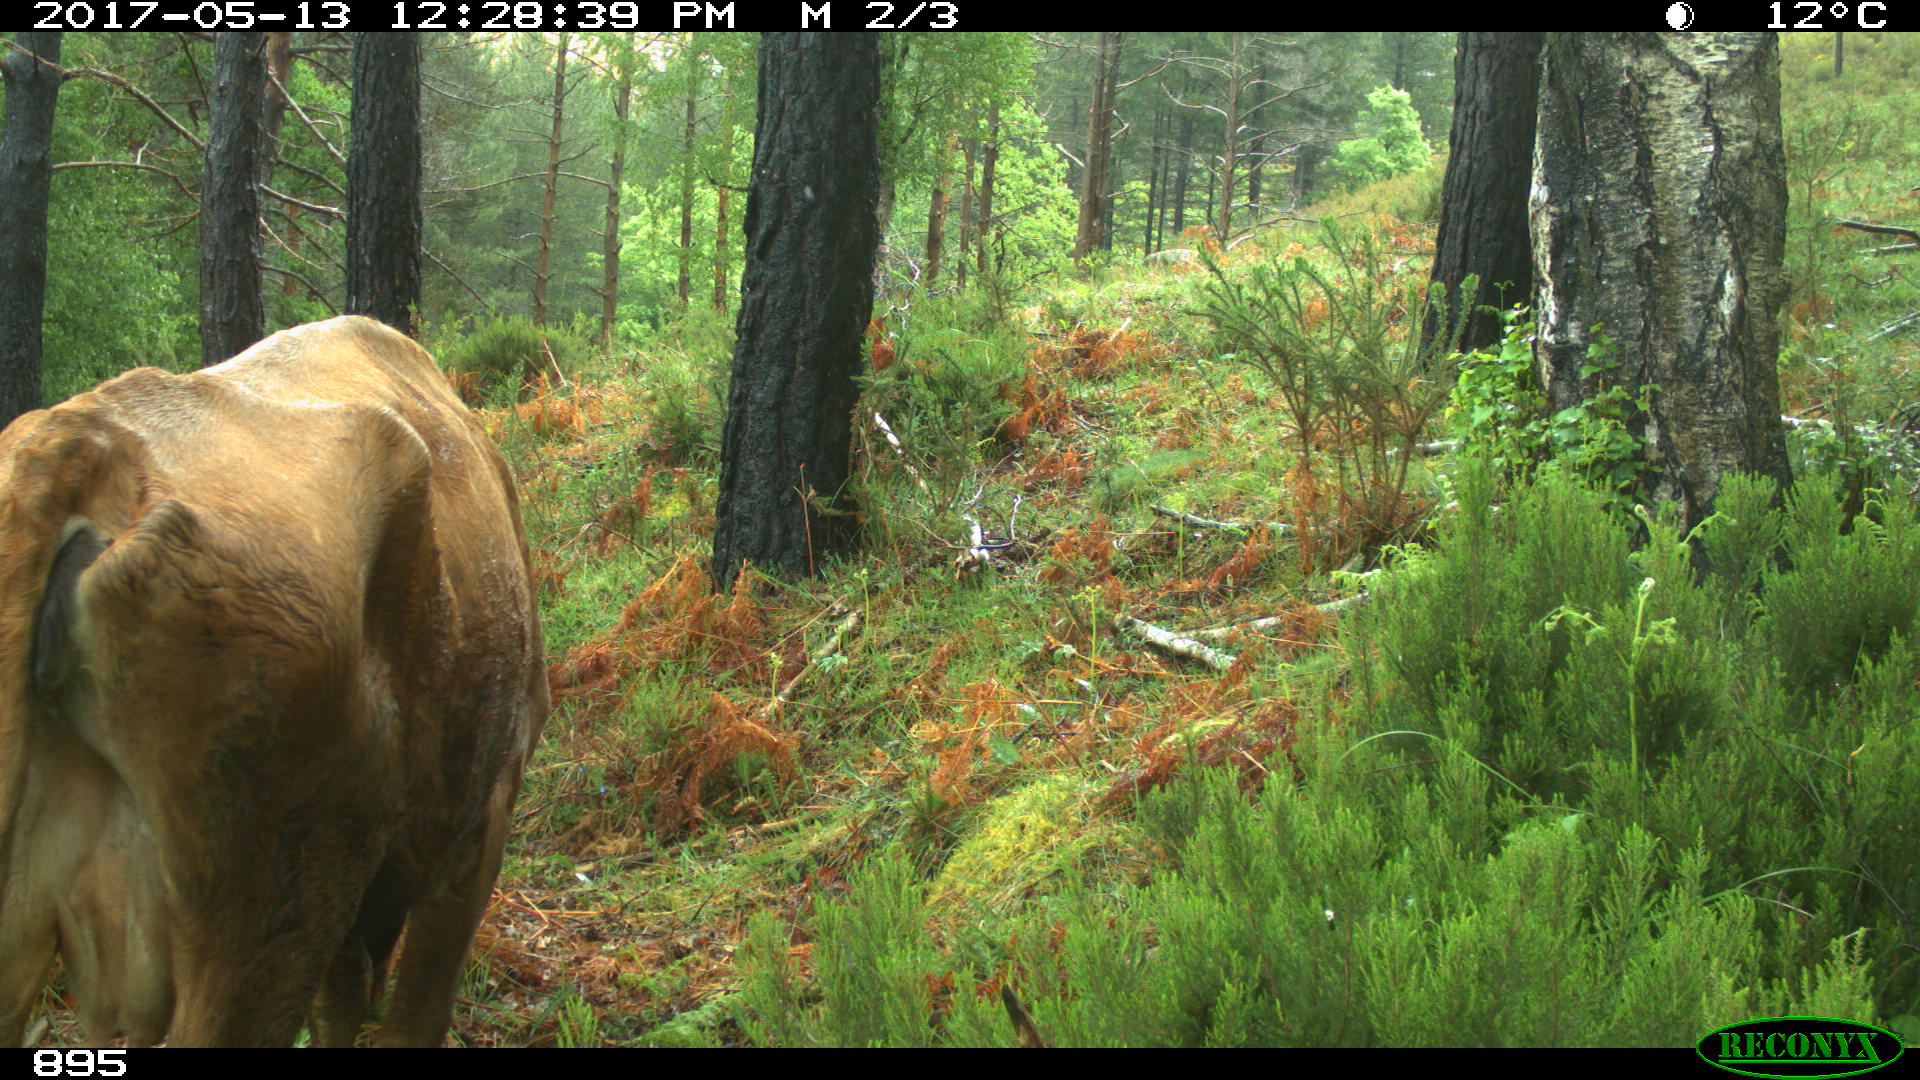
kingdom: Animalia
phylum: Chordata
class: Mammalia
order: Artiodactyla
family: Bovidae
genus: Bos
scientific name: Bos taurus
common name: Domesticated cattle
